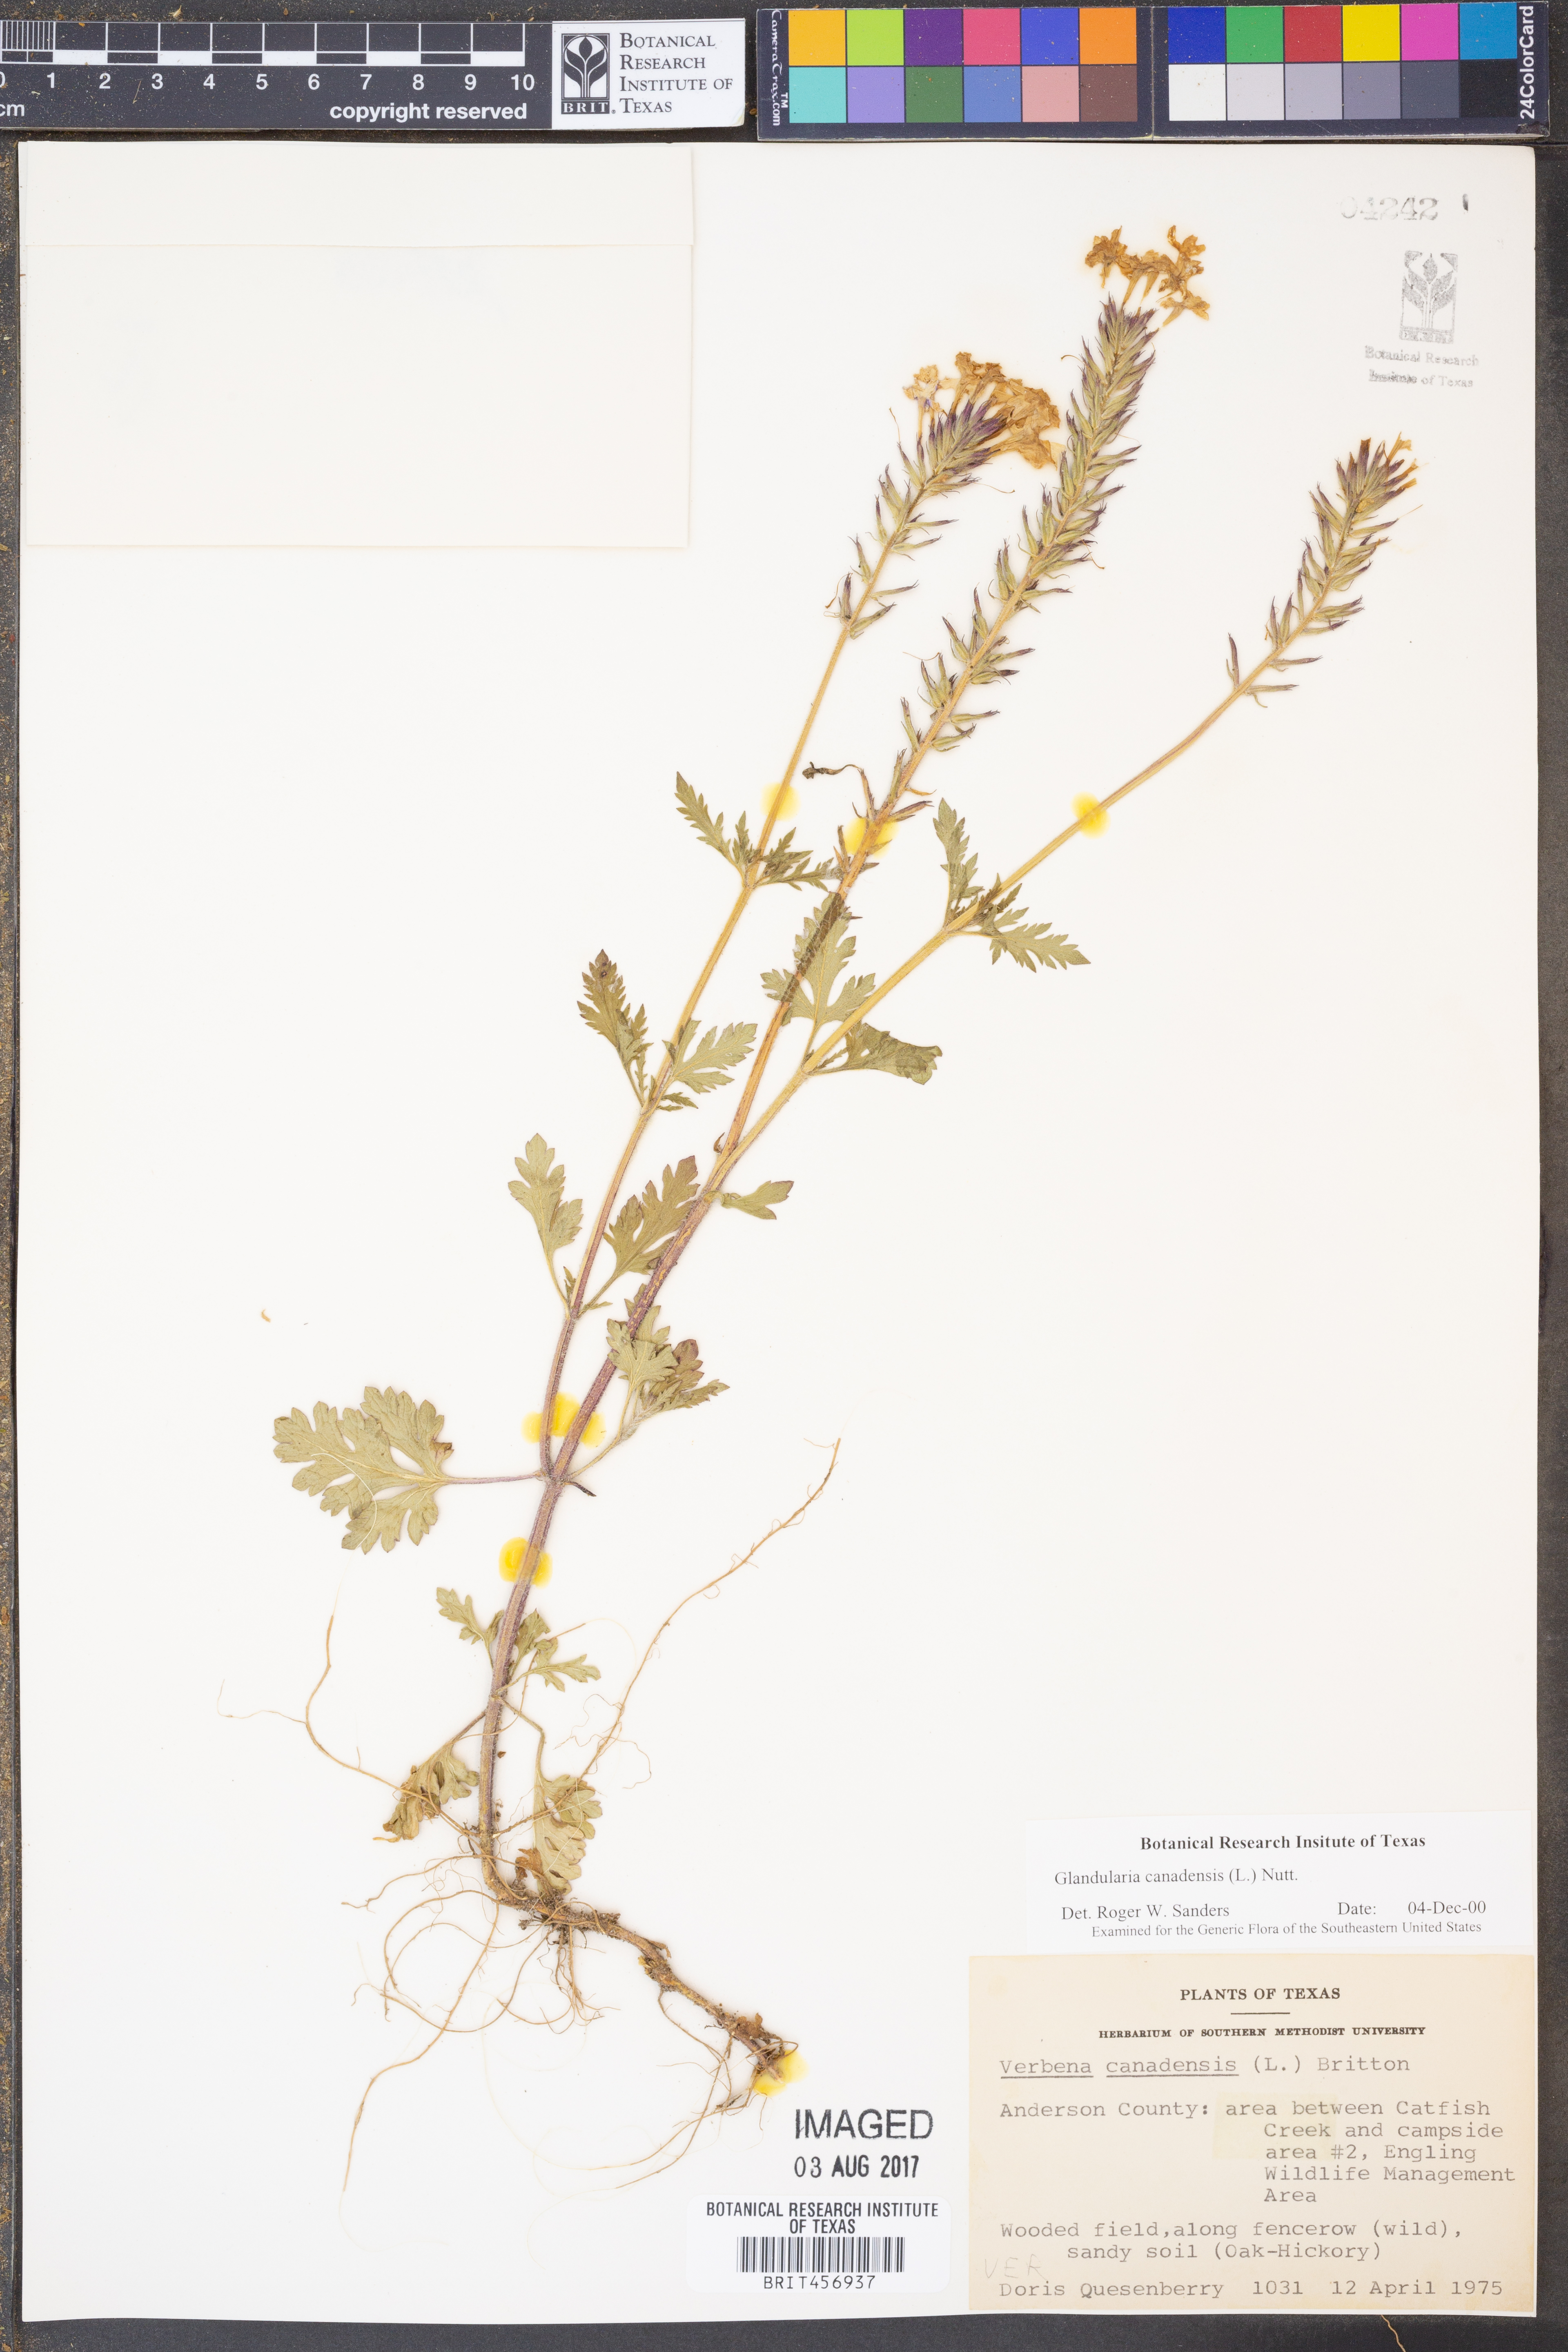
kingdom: Plantae
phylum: Tracheophyta
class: Magnoliopsida
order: Lamiales
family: Verbenaceae
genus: Verbena
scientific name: Verbena canadensis
